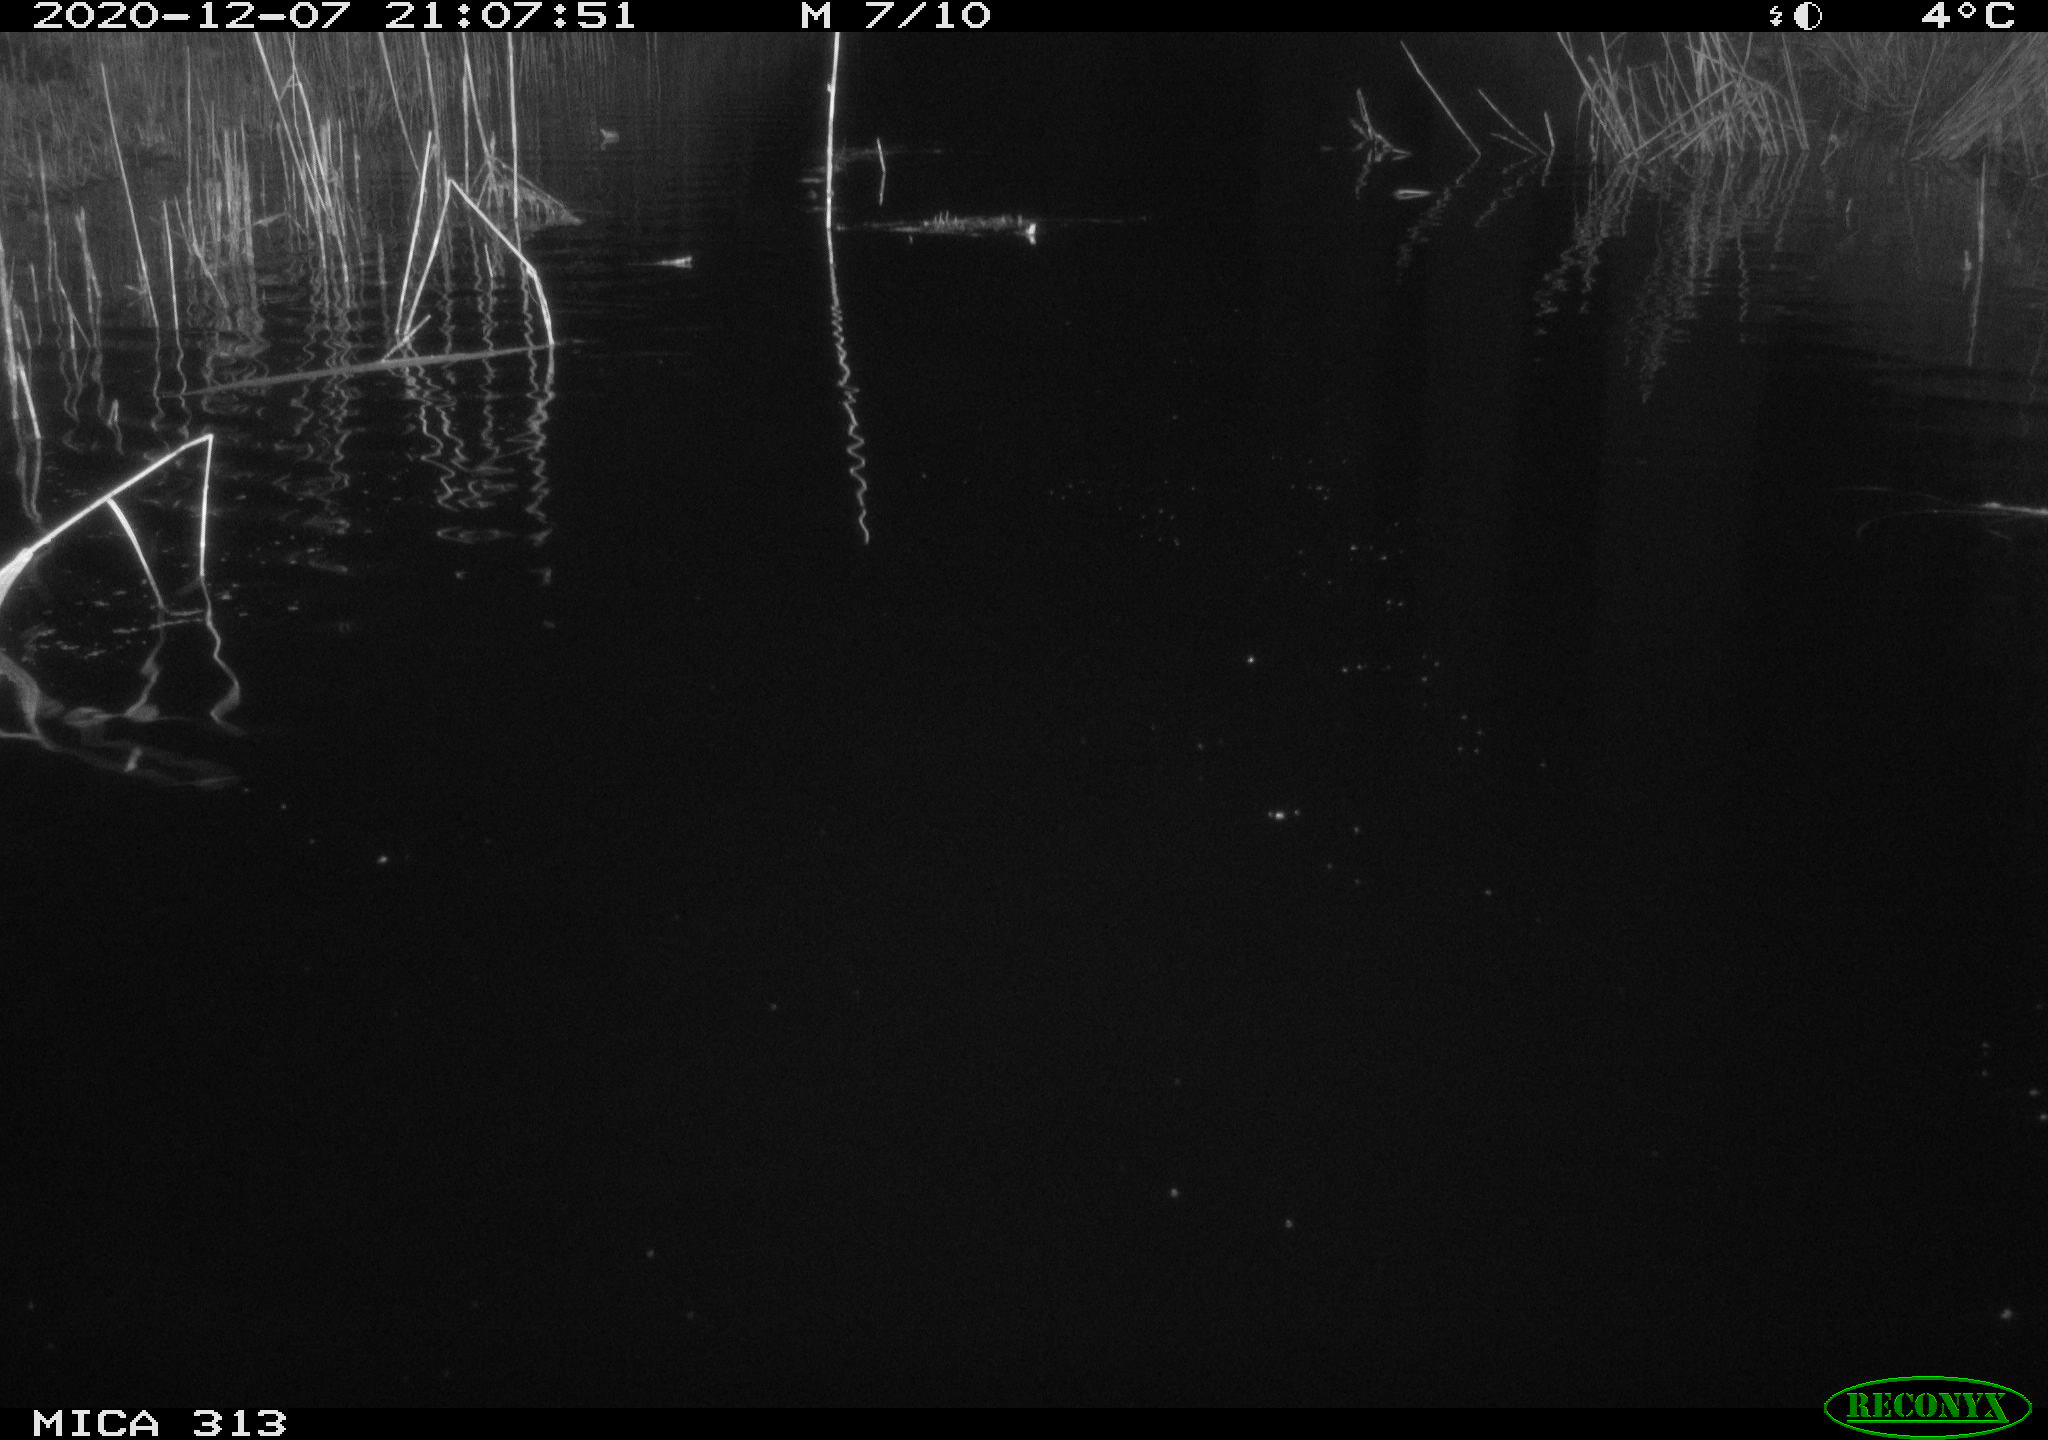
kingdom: Animalia
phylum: Chordata
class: Mammalia
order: Rodentia
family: Muridae
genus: Rattus
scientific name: Rattus norvegicus
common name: Brown rat
